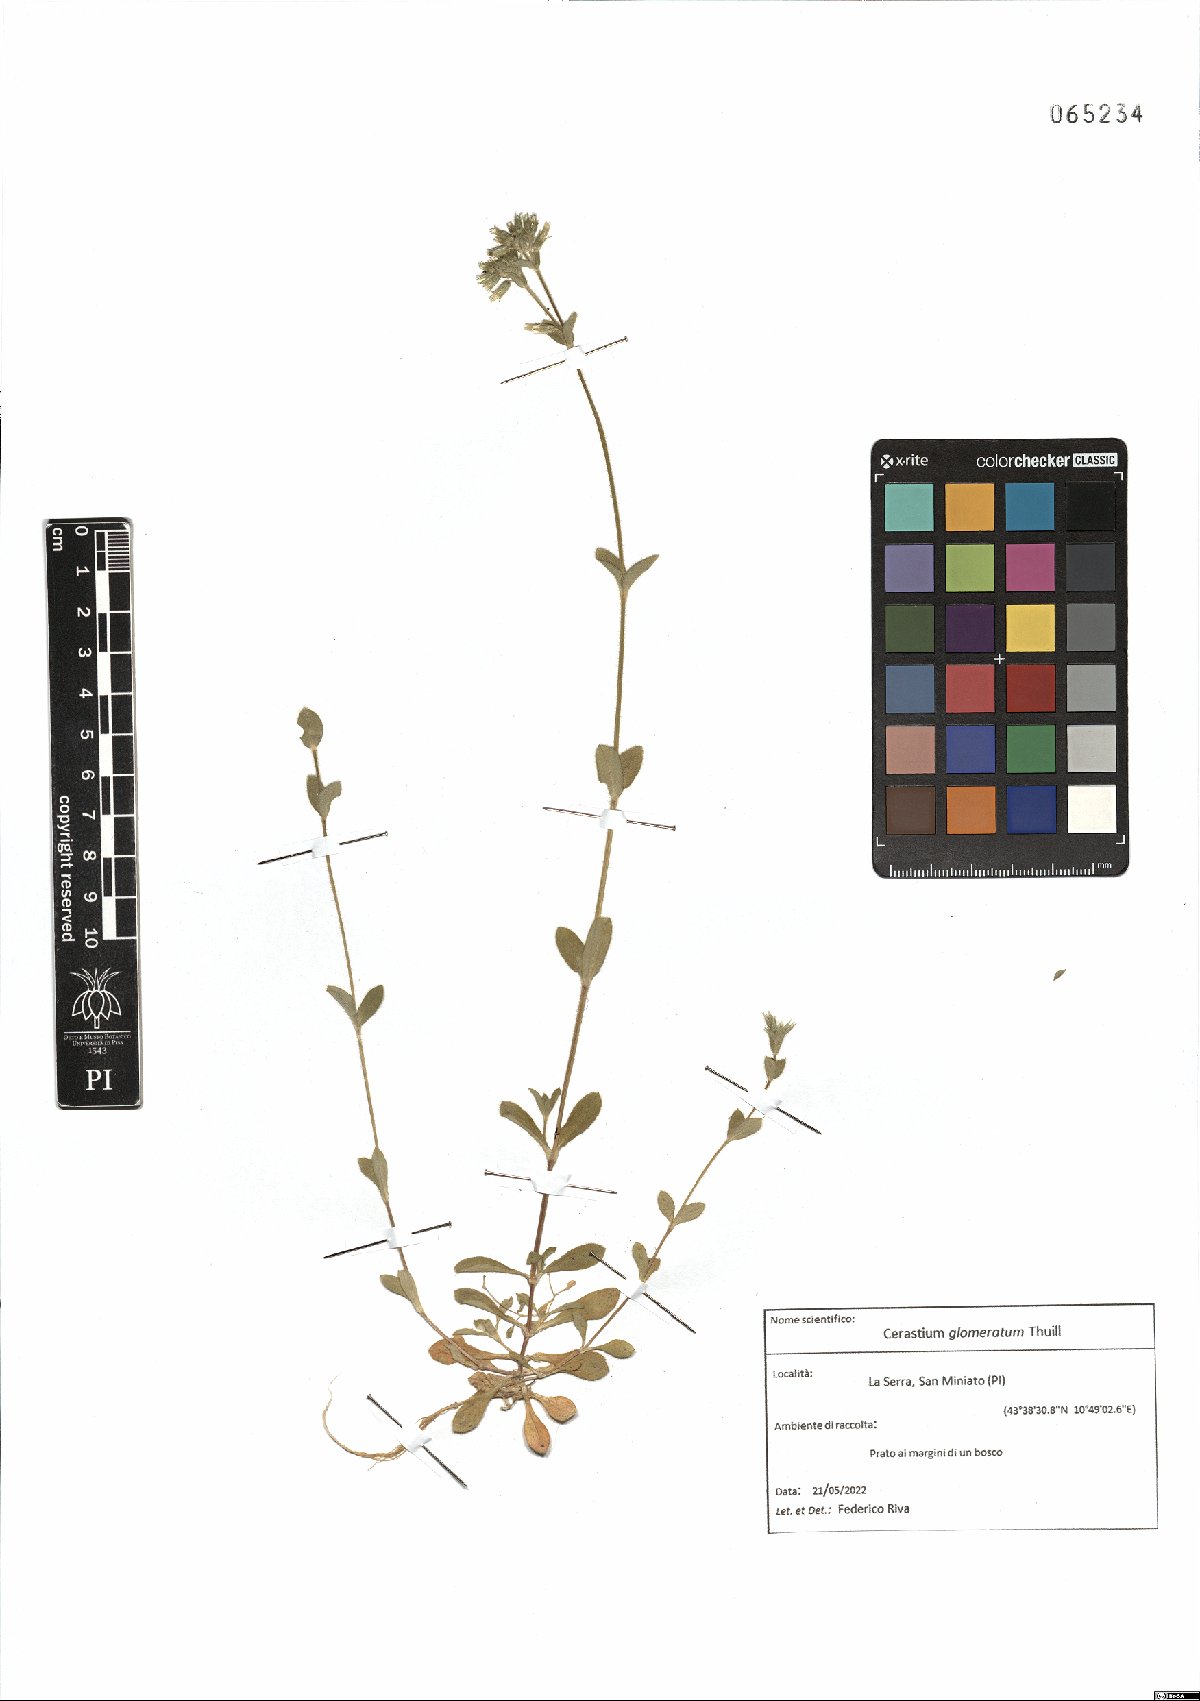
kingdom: Plantae
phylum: Tracheophyta
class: Magnoliopsida
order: Caryophyllales
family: Caryophyllaceae
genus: Cerastium
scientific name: Cerastium glomeratum
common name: Sticky chickweed
